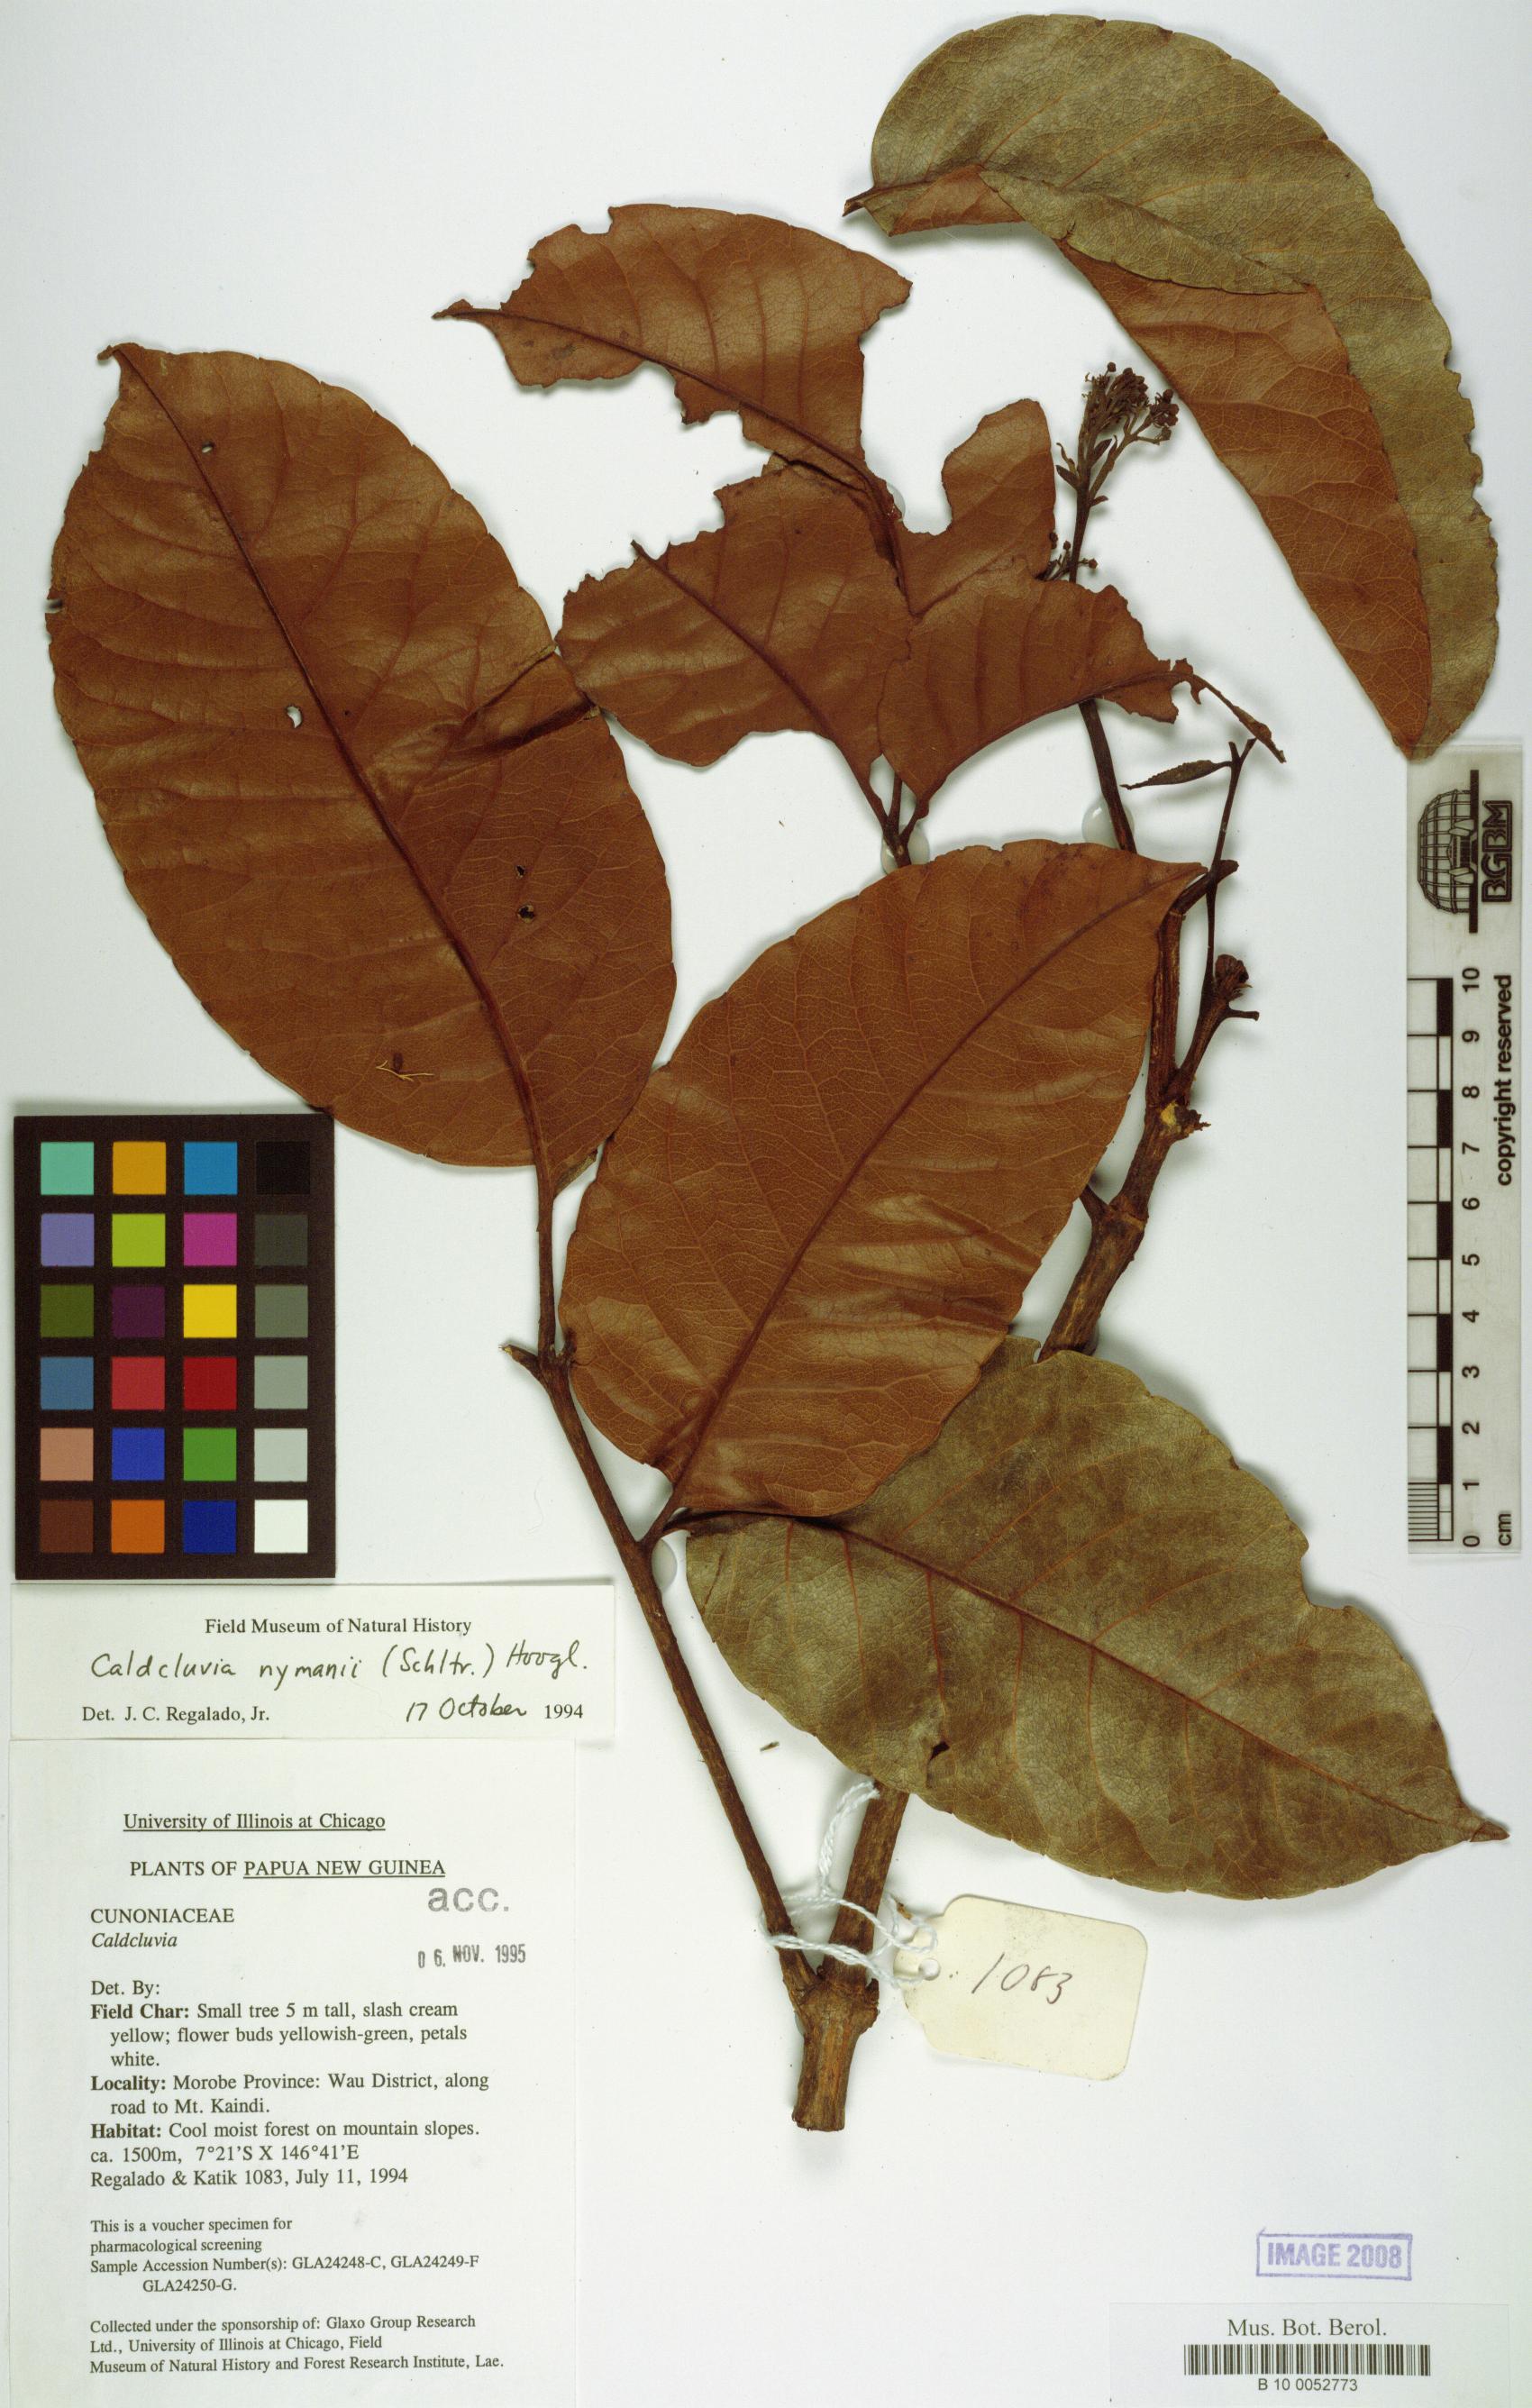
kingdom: Plantae
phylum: Tracheophyta
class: Magnoliopsida
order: Oxalidales
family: Cunoniaceae
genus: Opocunonia
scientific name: Opocunonia nymanii
